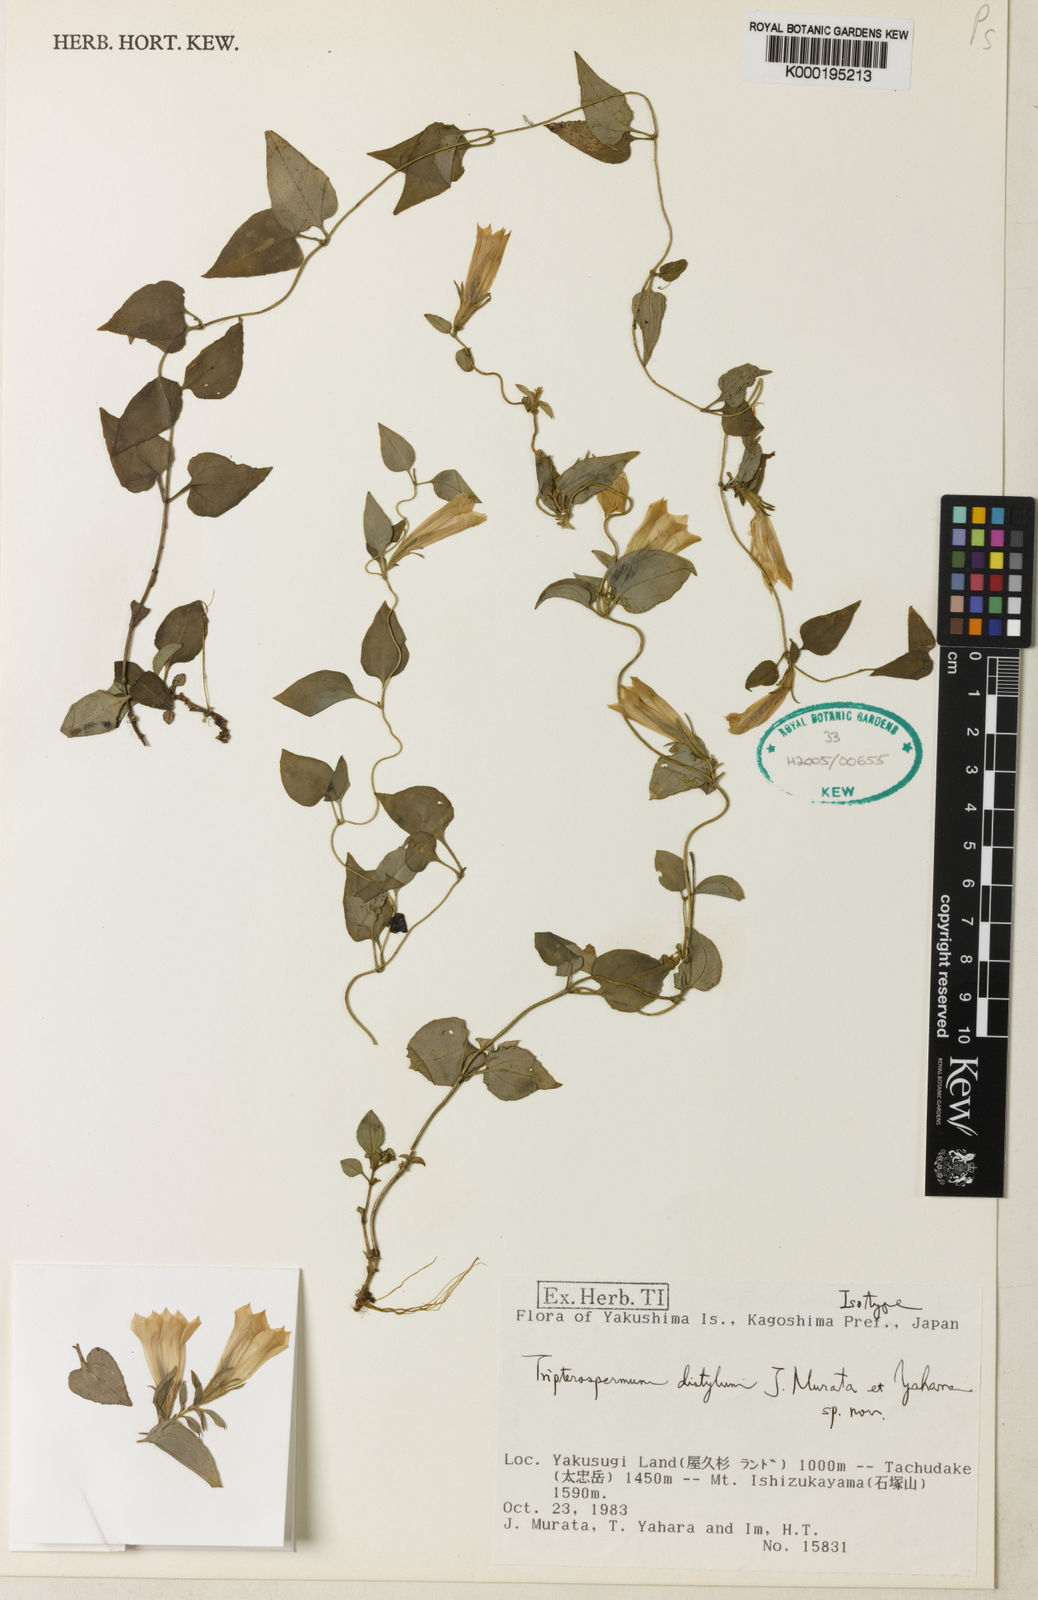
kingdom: Plantae
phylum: Tracheophyta
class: Magnoliopsida
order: Gentianales
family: Gentianaceae
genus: Tripterospermum
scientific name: Tripterospermum distylum
